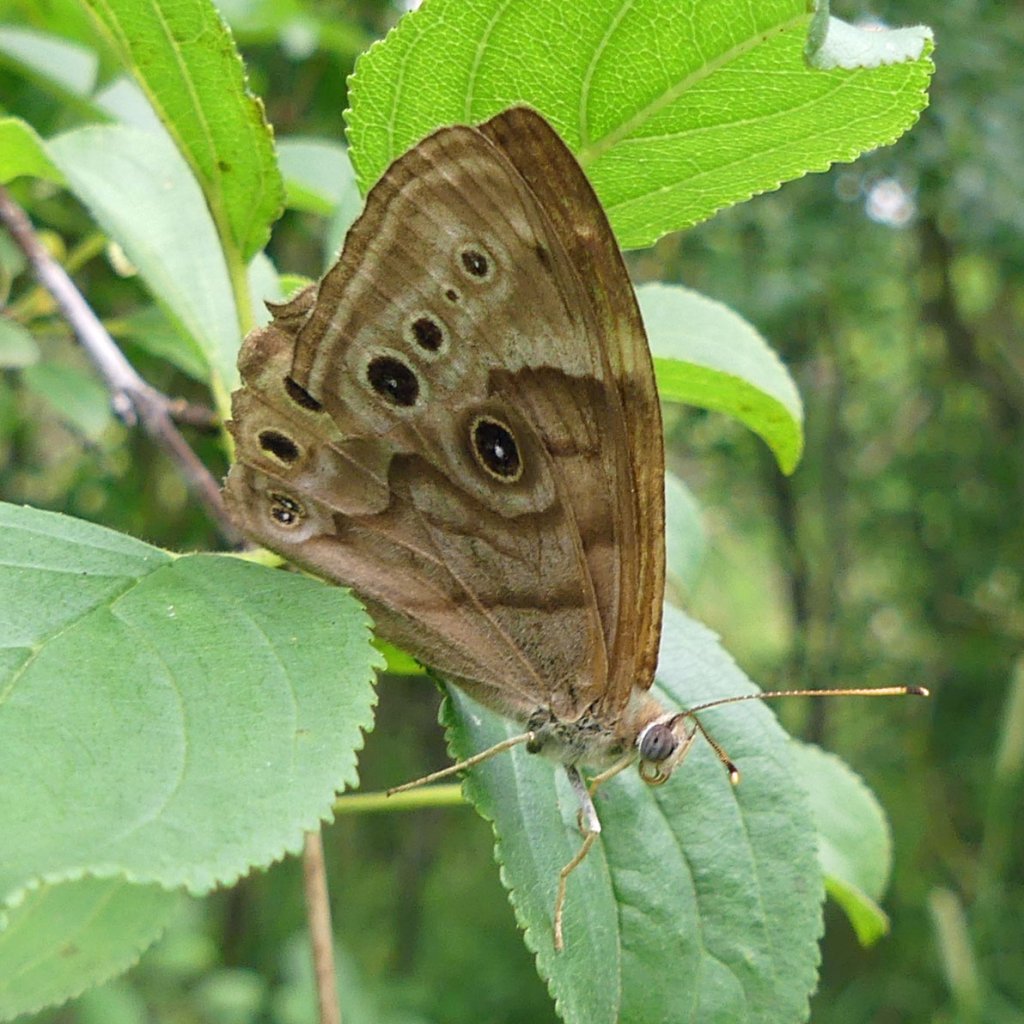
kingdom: Animalia
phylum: Arthropoda
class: Insecta
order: Lepidoptera
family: Nymphalidae
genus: Lethe
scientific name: Lethe anthedon
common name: Northern Pearly-Eye
